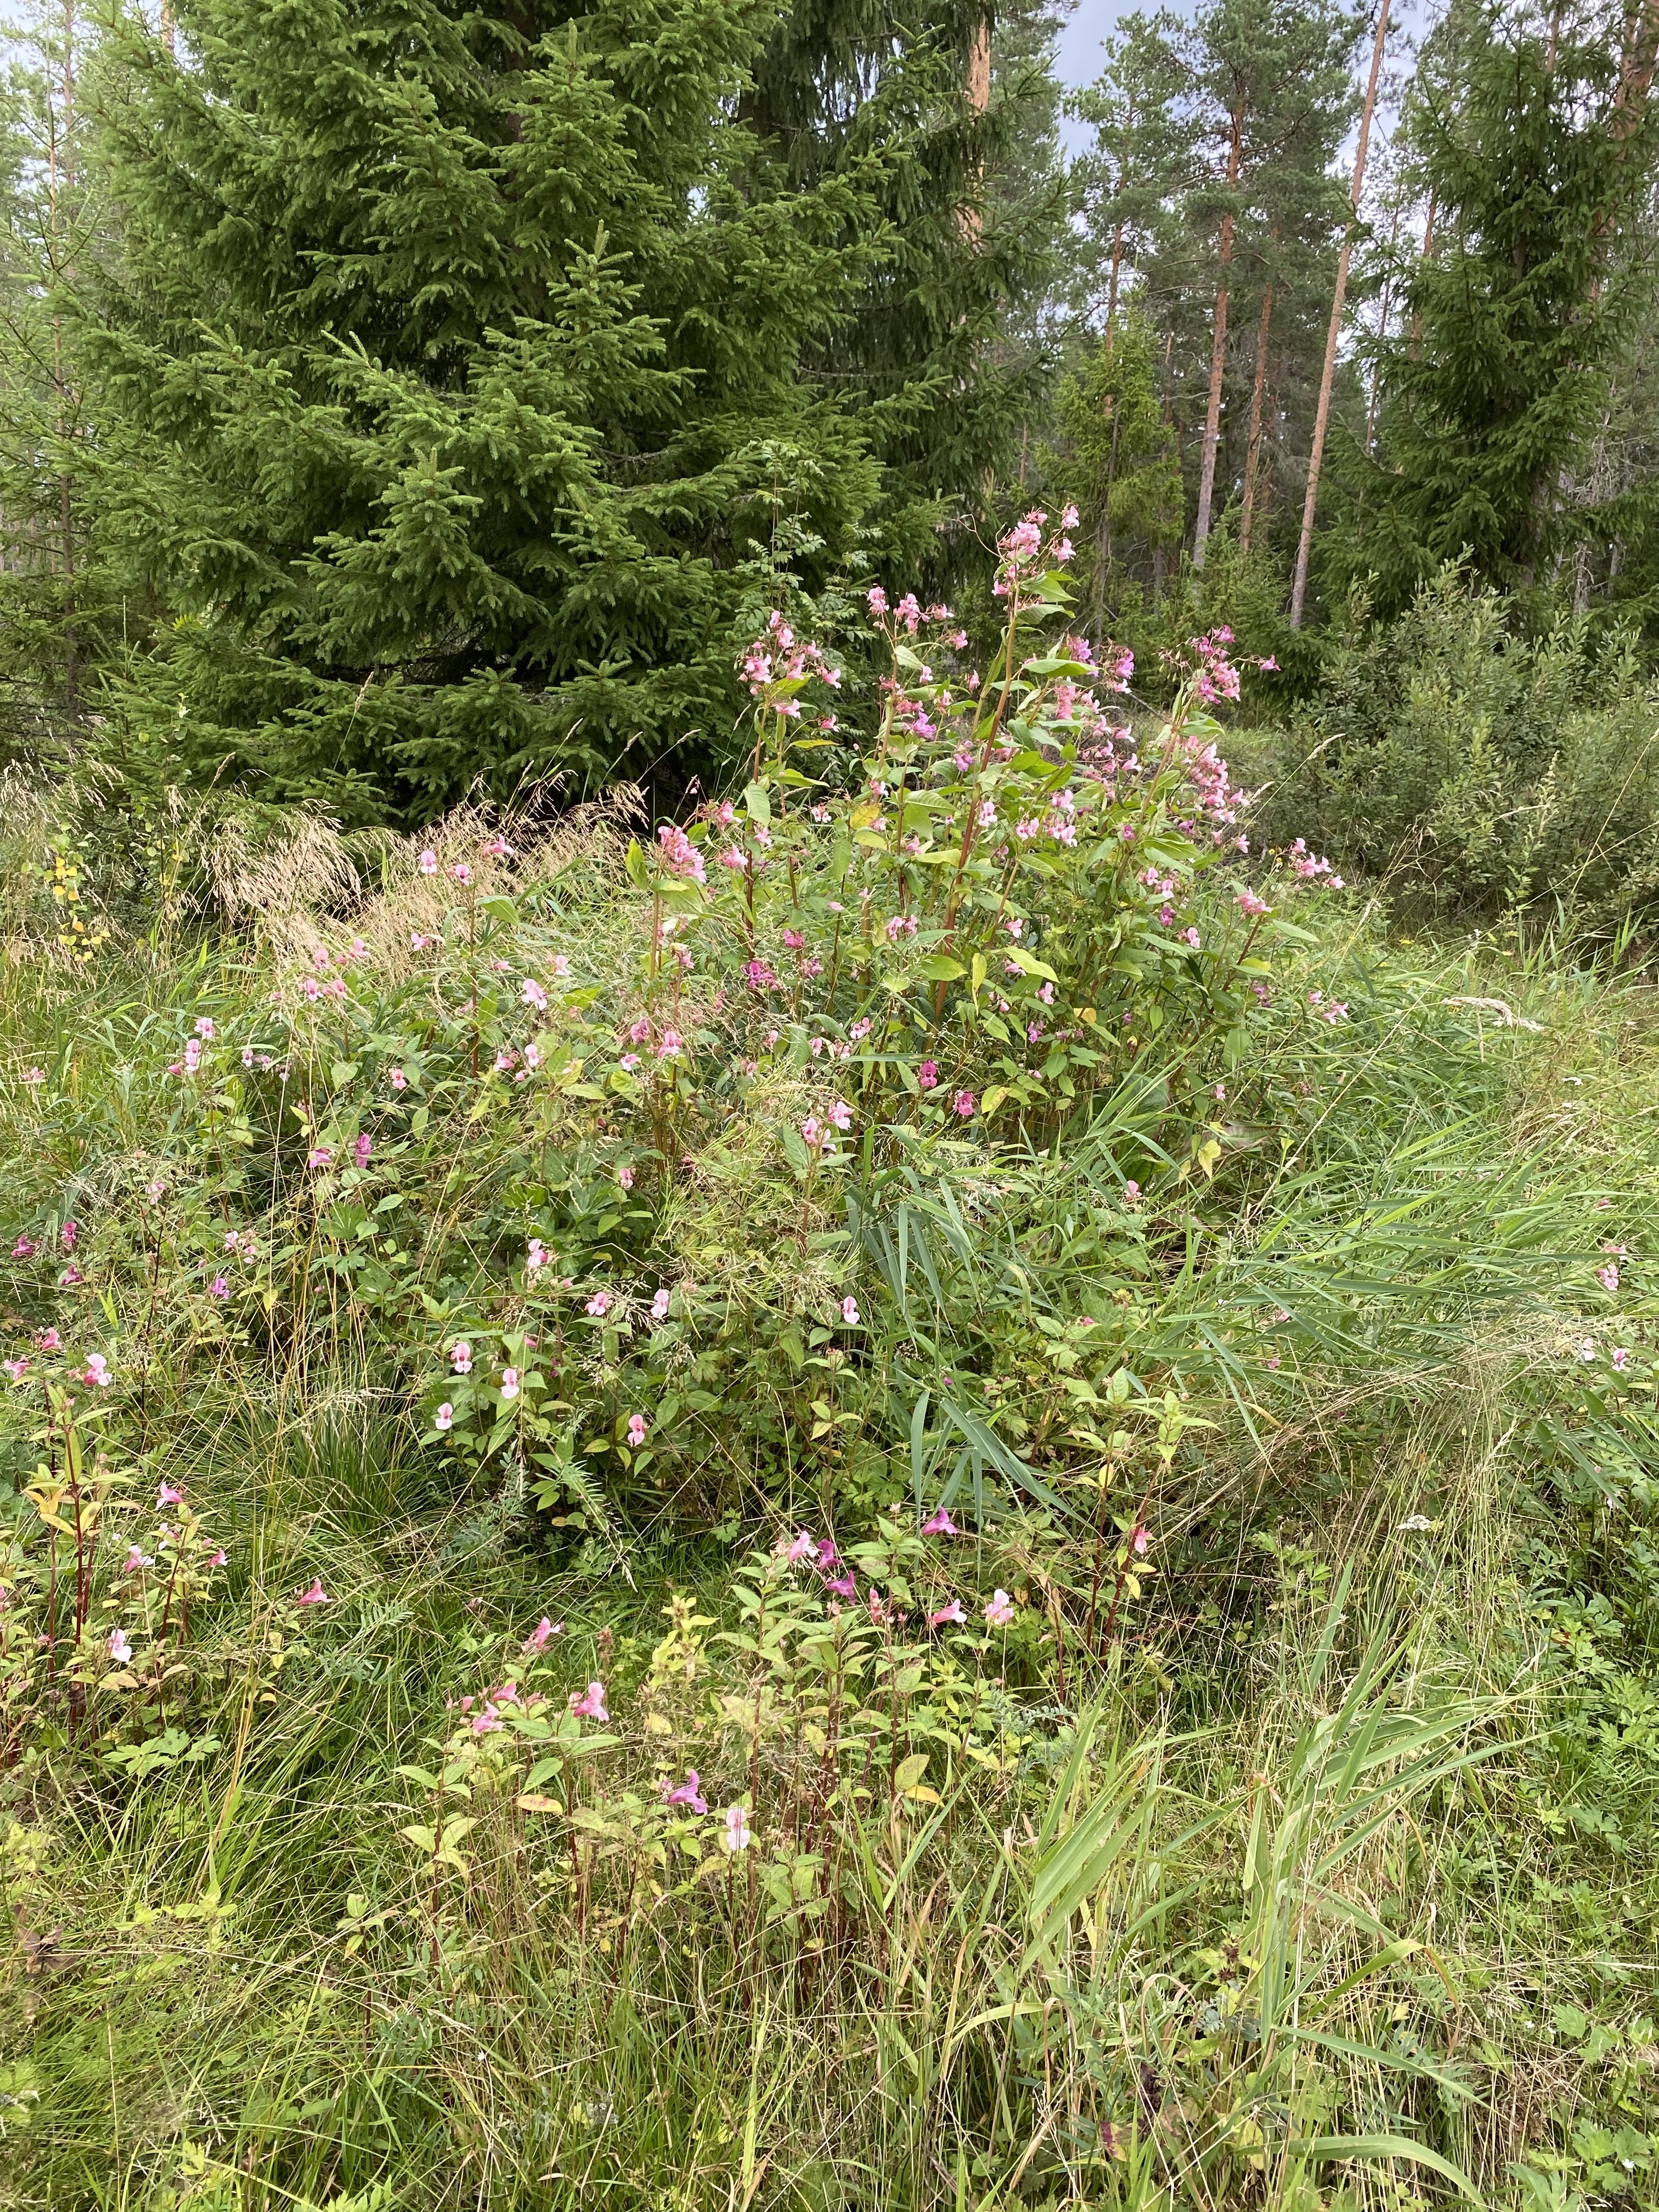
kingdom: Plantae
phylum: Tracheophyta
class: Magnoliopsida
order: Ericales
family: Balsaminaceae
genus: Impatiens
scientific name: Impatiens glandulifera
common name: Himalayan balsam
